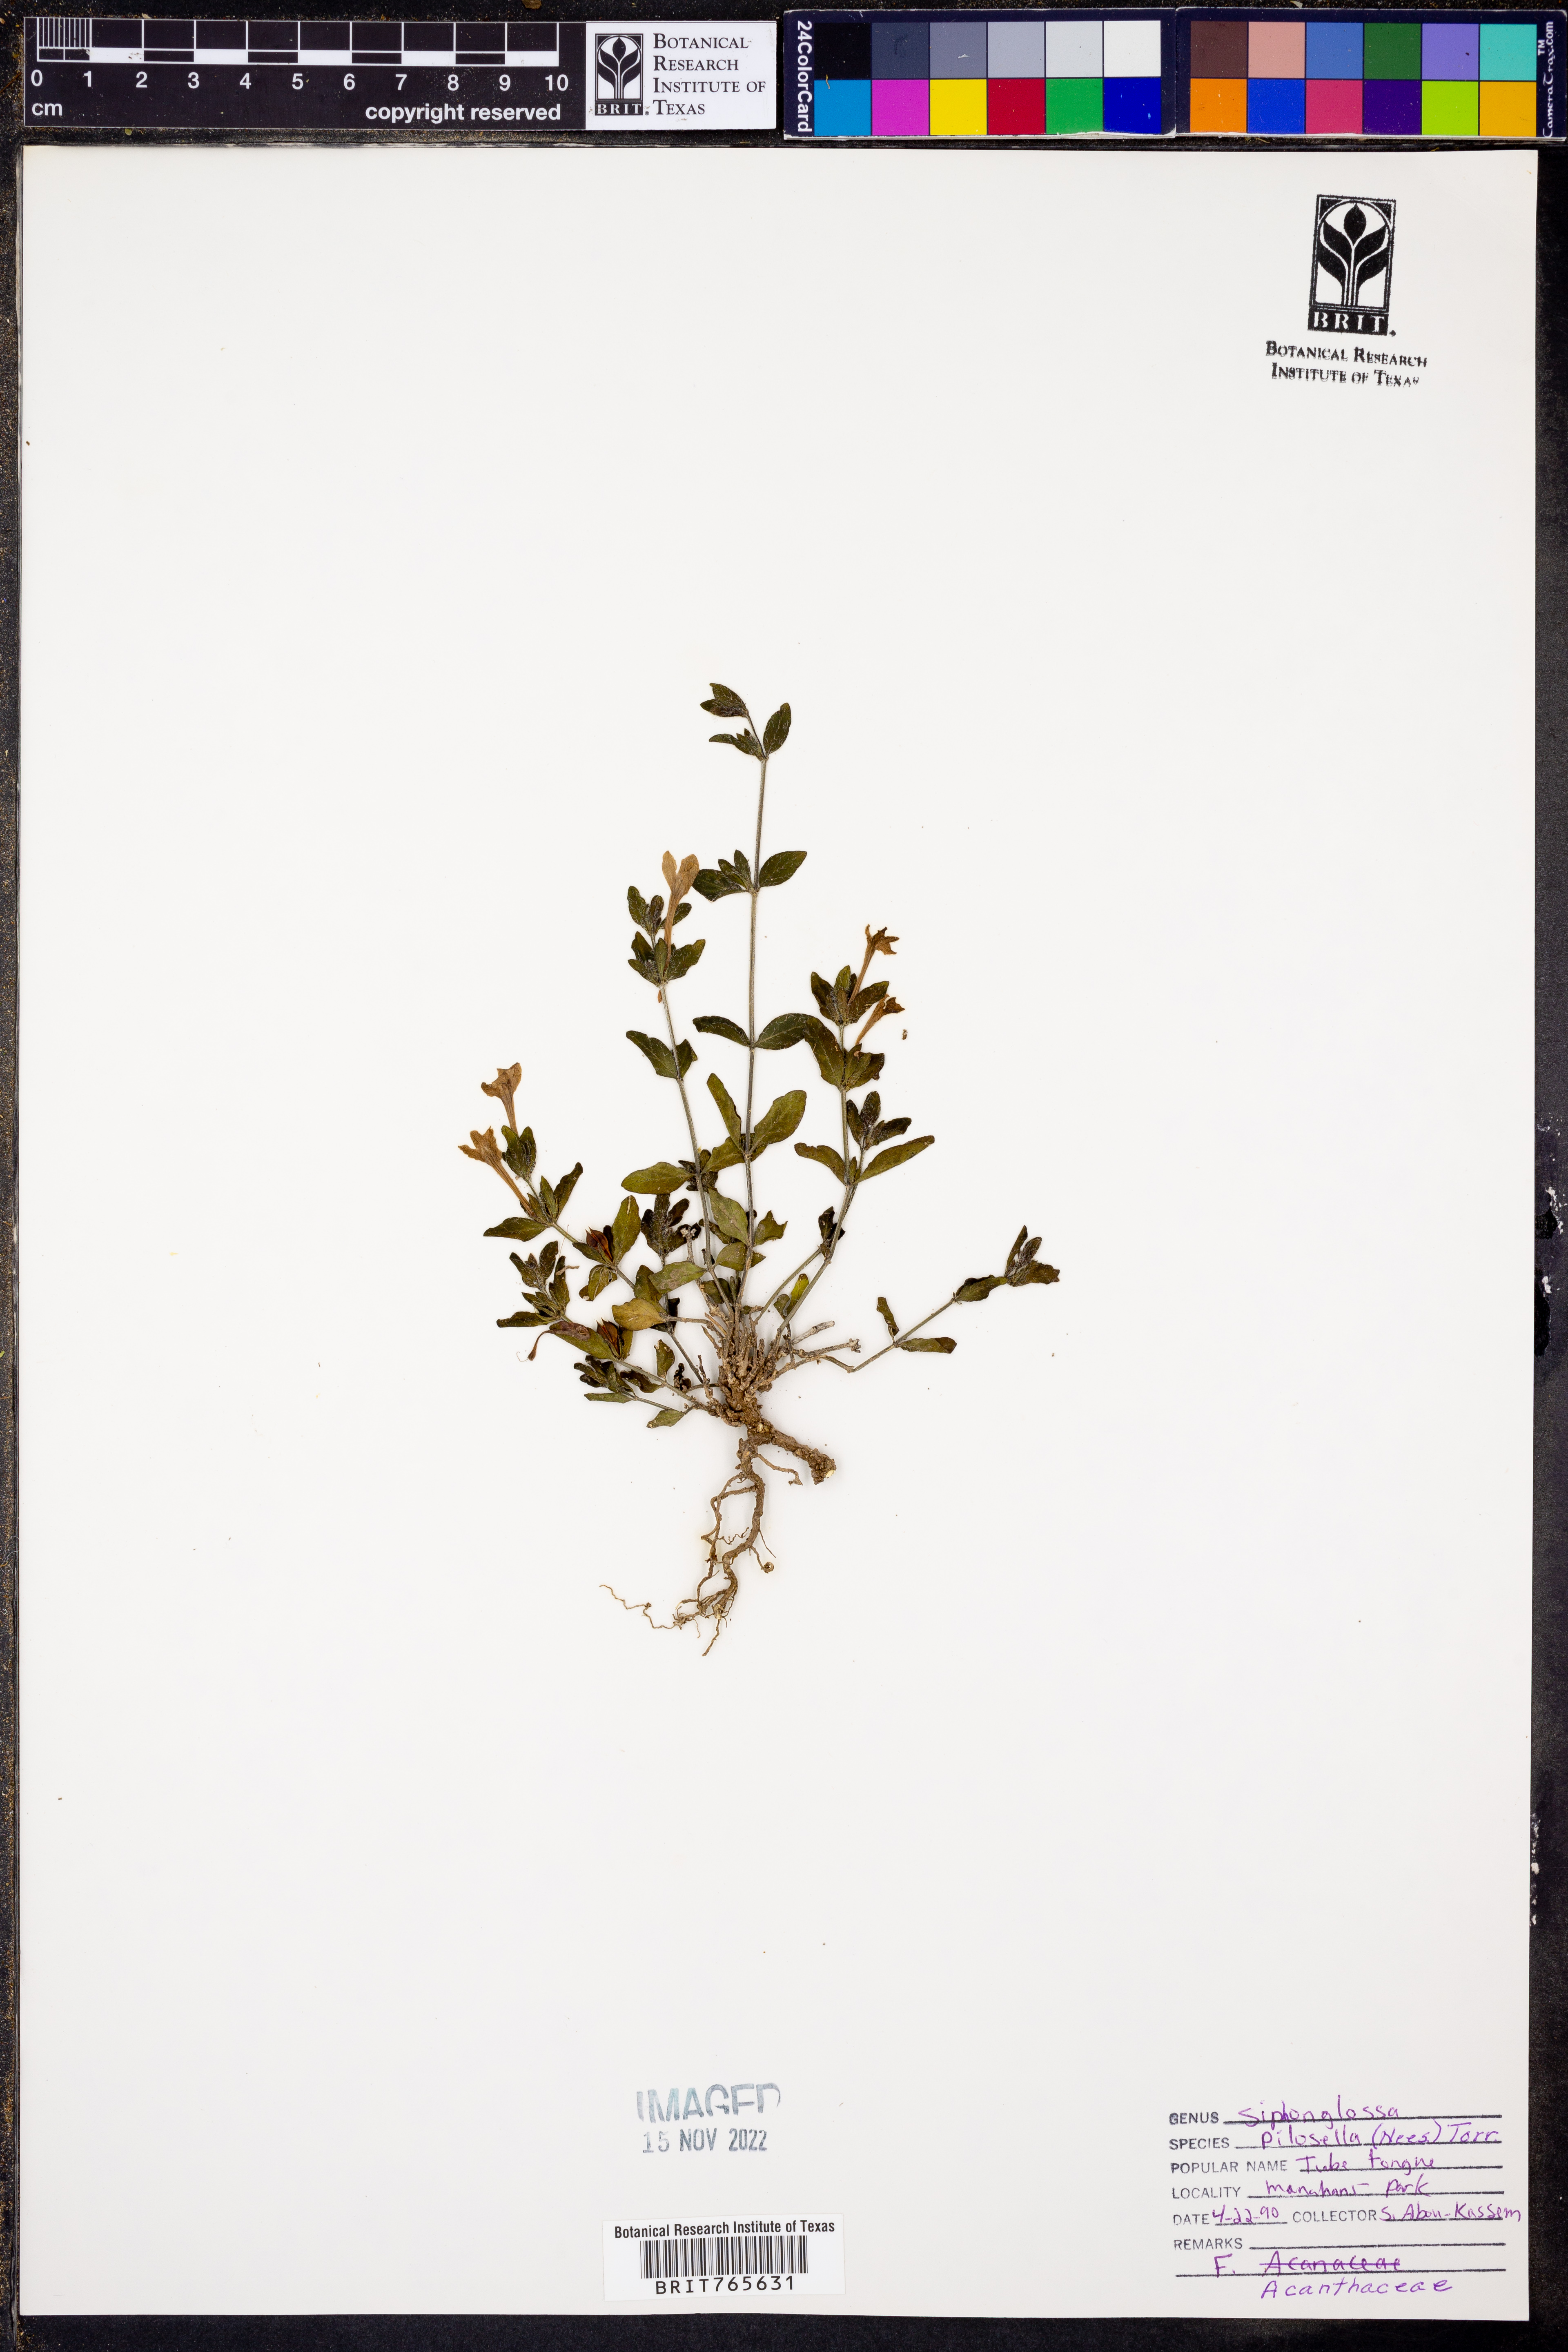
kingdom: Plantae
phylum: Tracheophyta
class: Magnoliopsida
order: Lamiales
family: Acanthaceae
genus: Justicia
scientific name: Justicia pilosella
